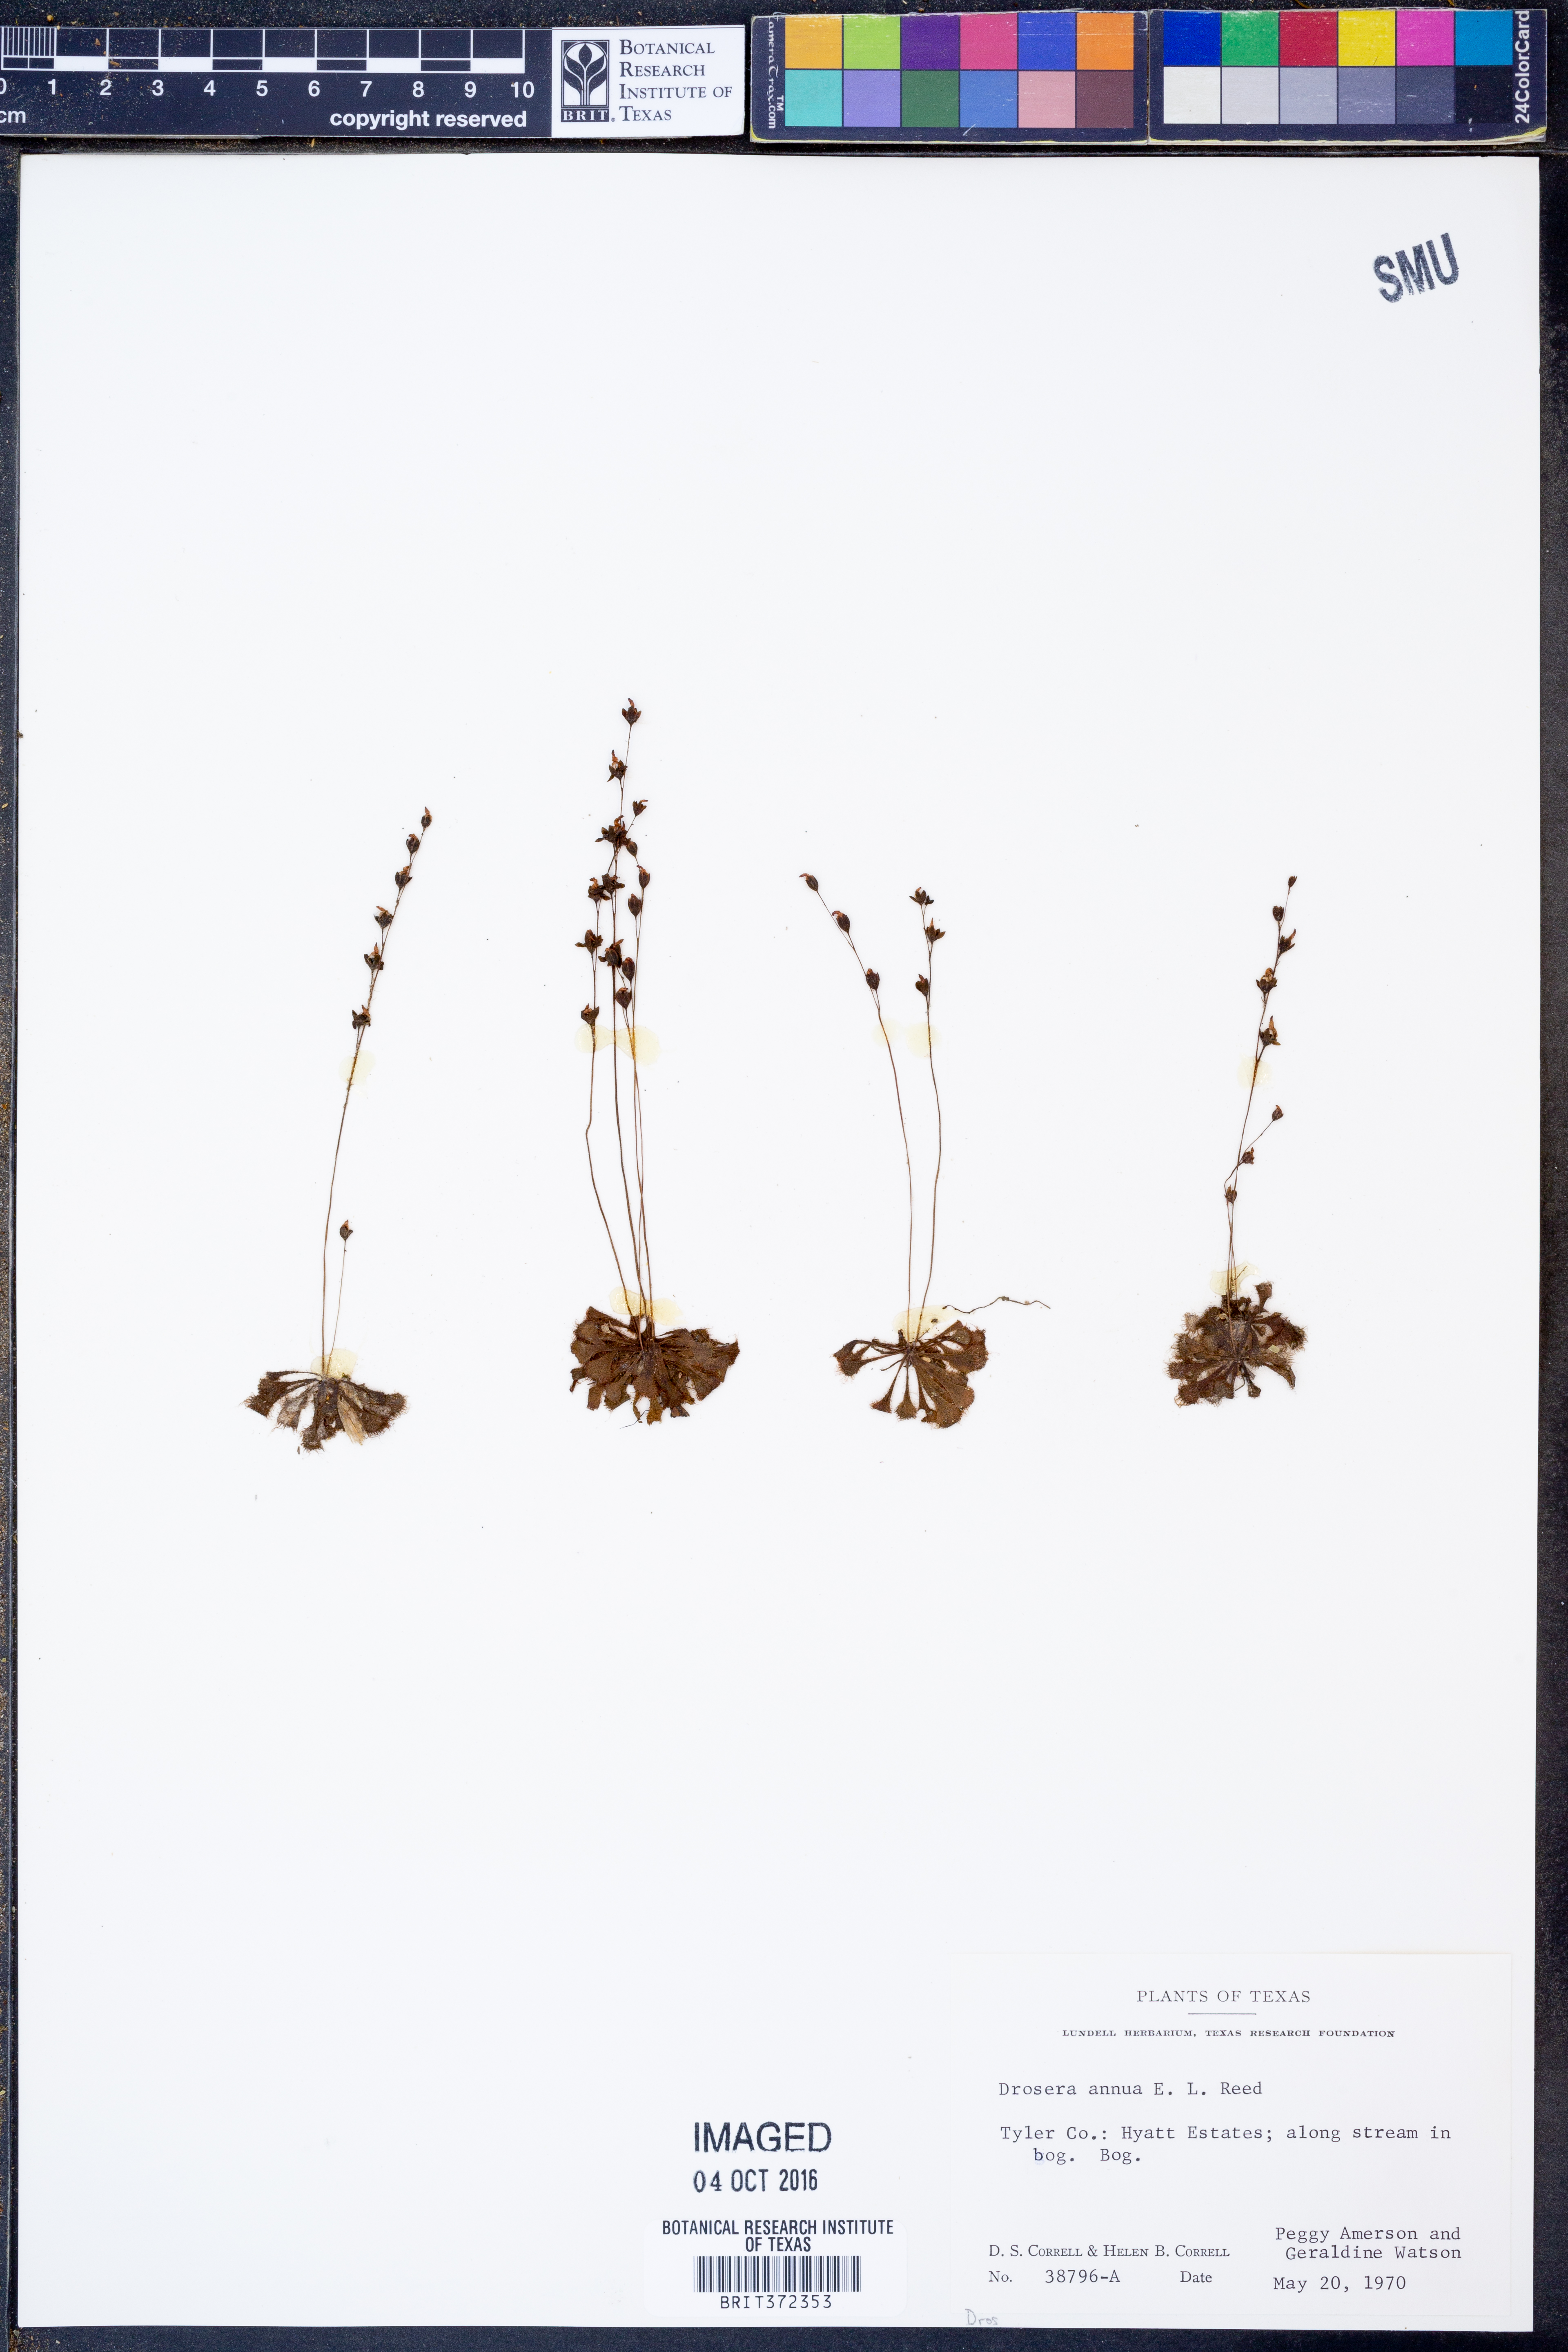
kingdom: Plantae
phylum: Tracheophyta
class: Magnoliopsida
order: Caryophyllales
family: Droseraceae
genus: Drosera
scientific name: Drosera brevifolia
